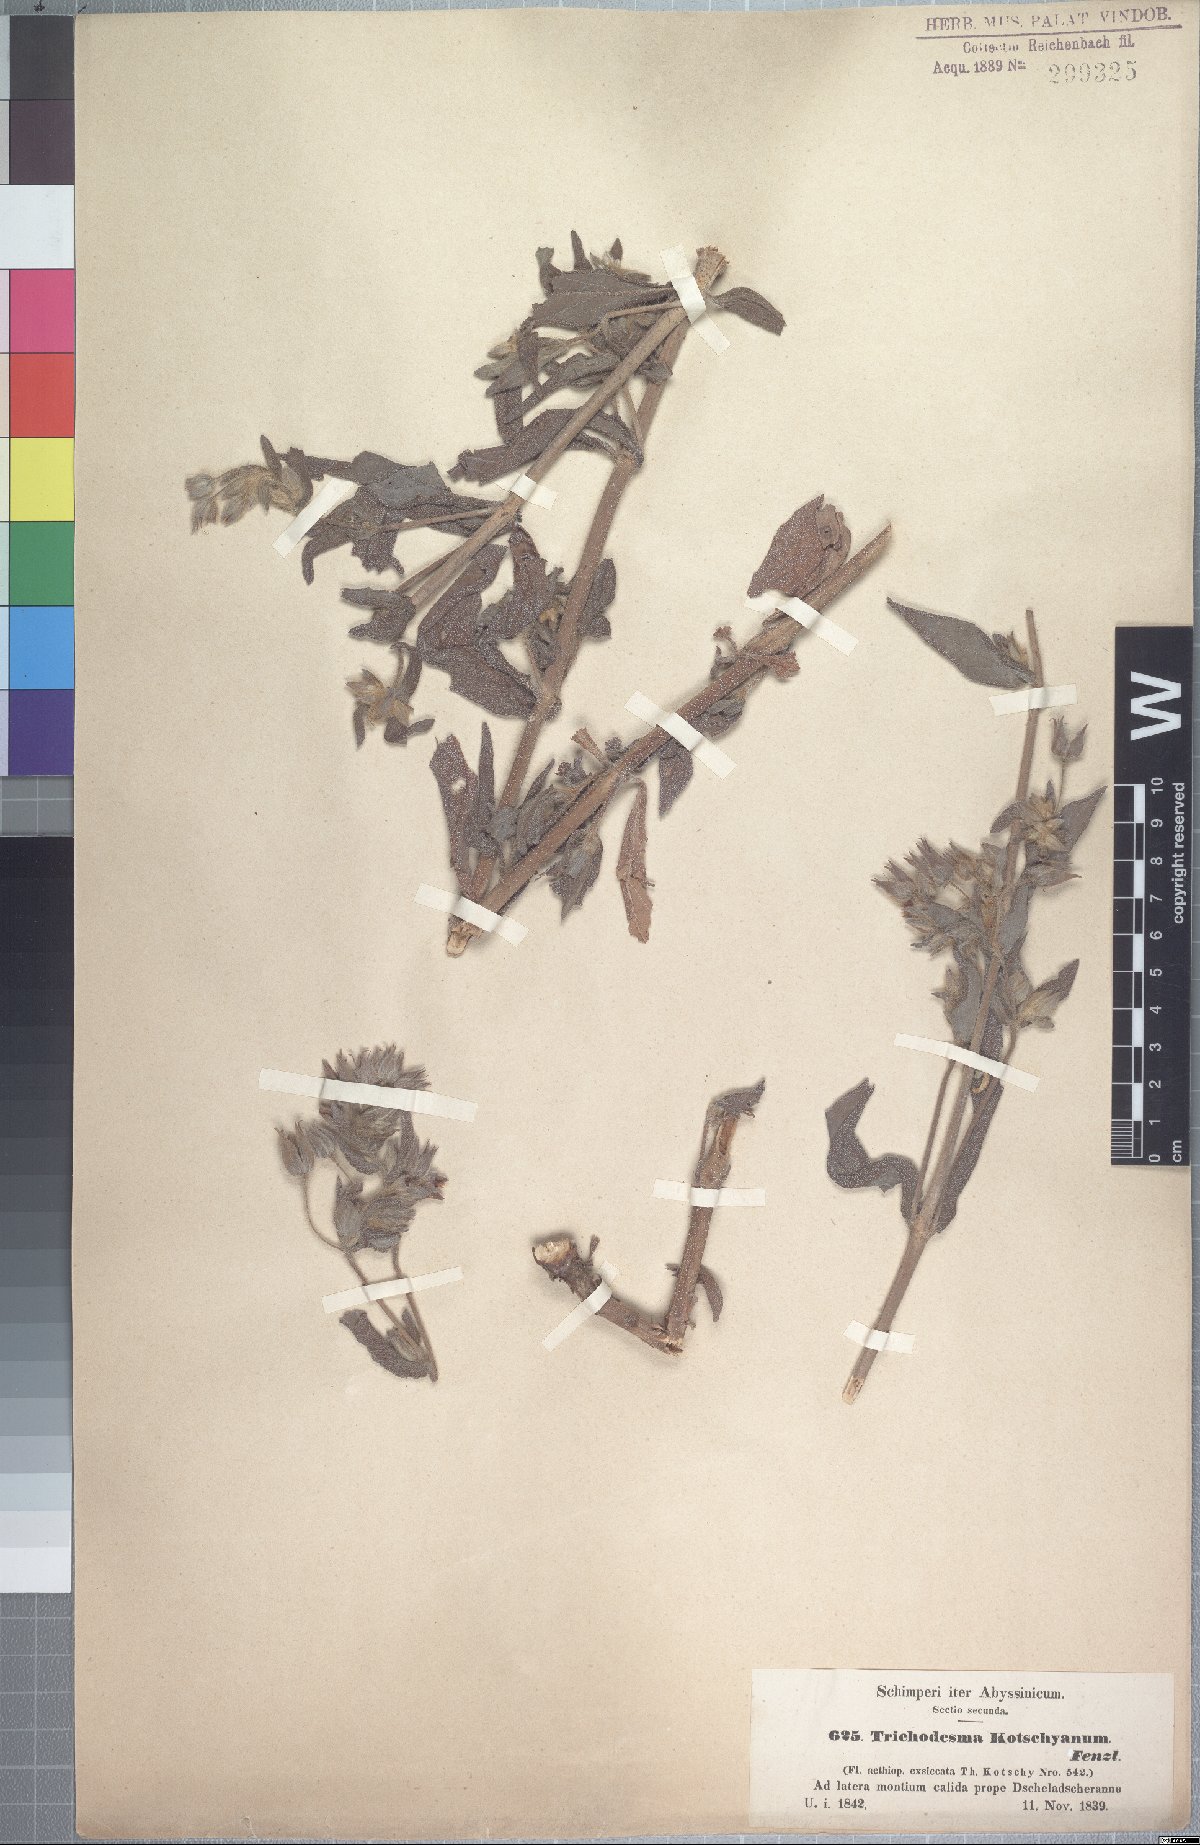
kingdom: Plantae
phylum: Tracheophyta
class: Magnoliopsida
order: Boraginales
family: Boraginaceae
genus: Trichodesma
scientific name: Trichodesma zeylanicum
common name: Camelbush
